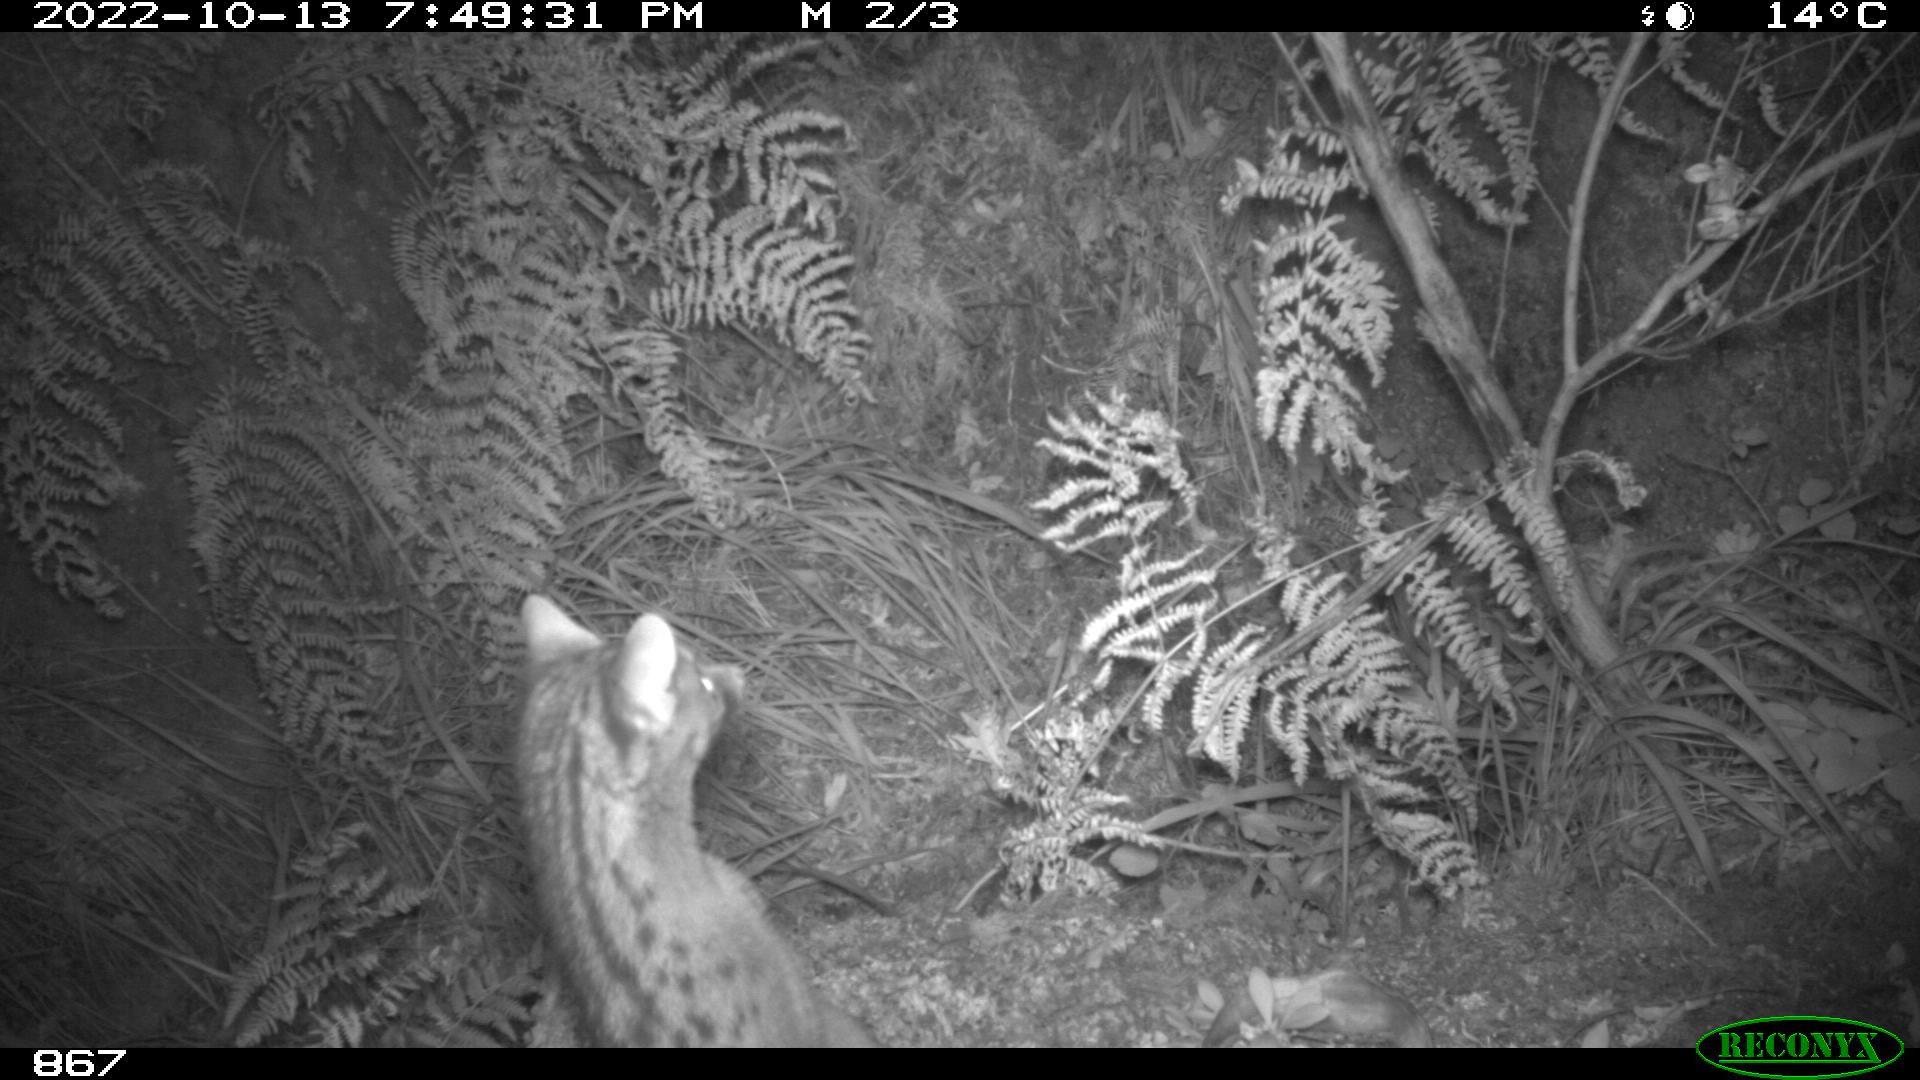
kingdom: Animalia
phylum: Chordata
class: Mammalia
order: Carnivora
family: Viverridae
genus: Genetta
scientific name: Genetta genetta
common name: Common genet
